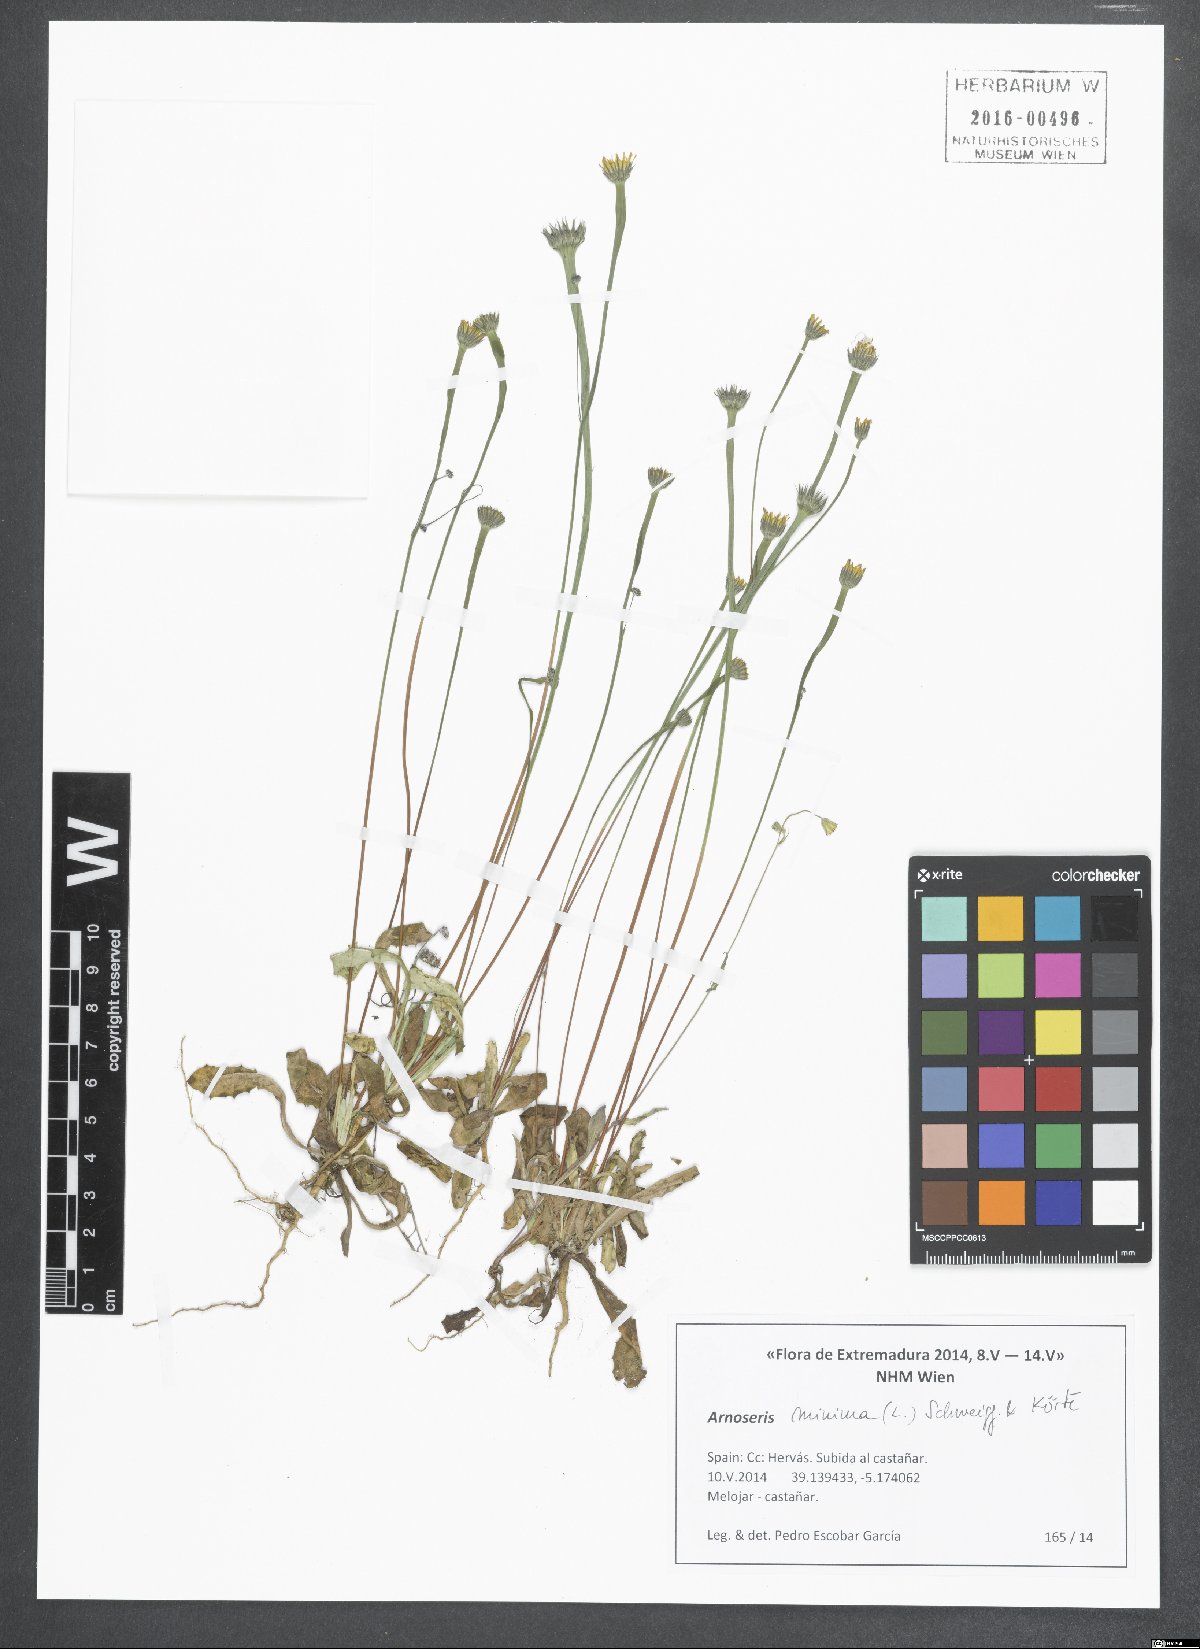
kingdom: Plantae
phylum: Tracheophyta
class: Magnoliopsida
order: Asterales
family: Asteraceae
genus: Arnoseris
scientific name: Arnoseris minima
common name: Lamb's succory
